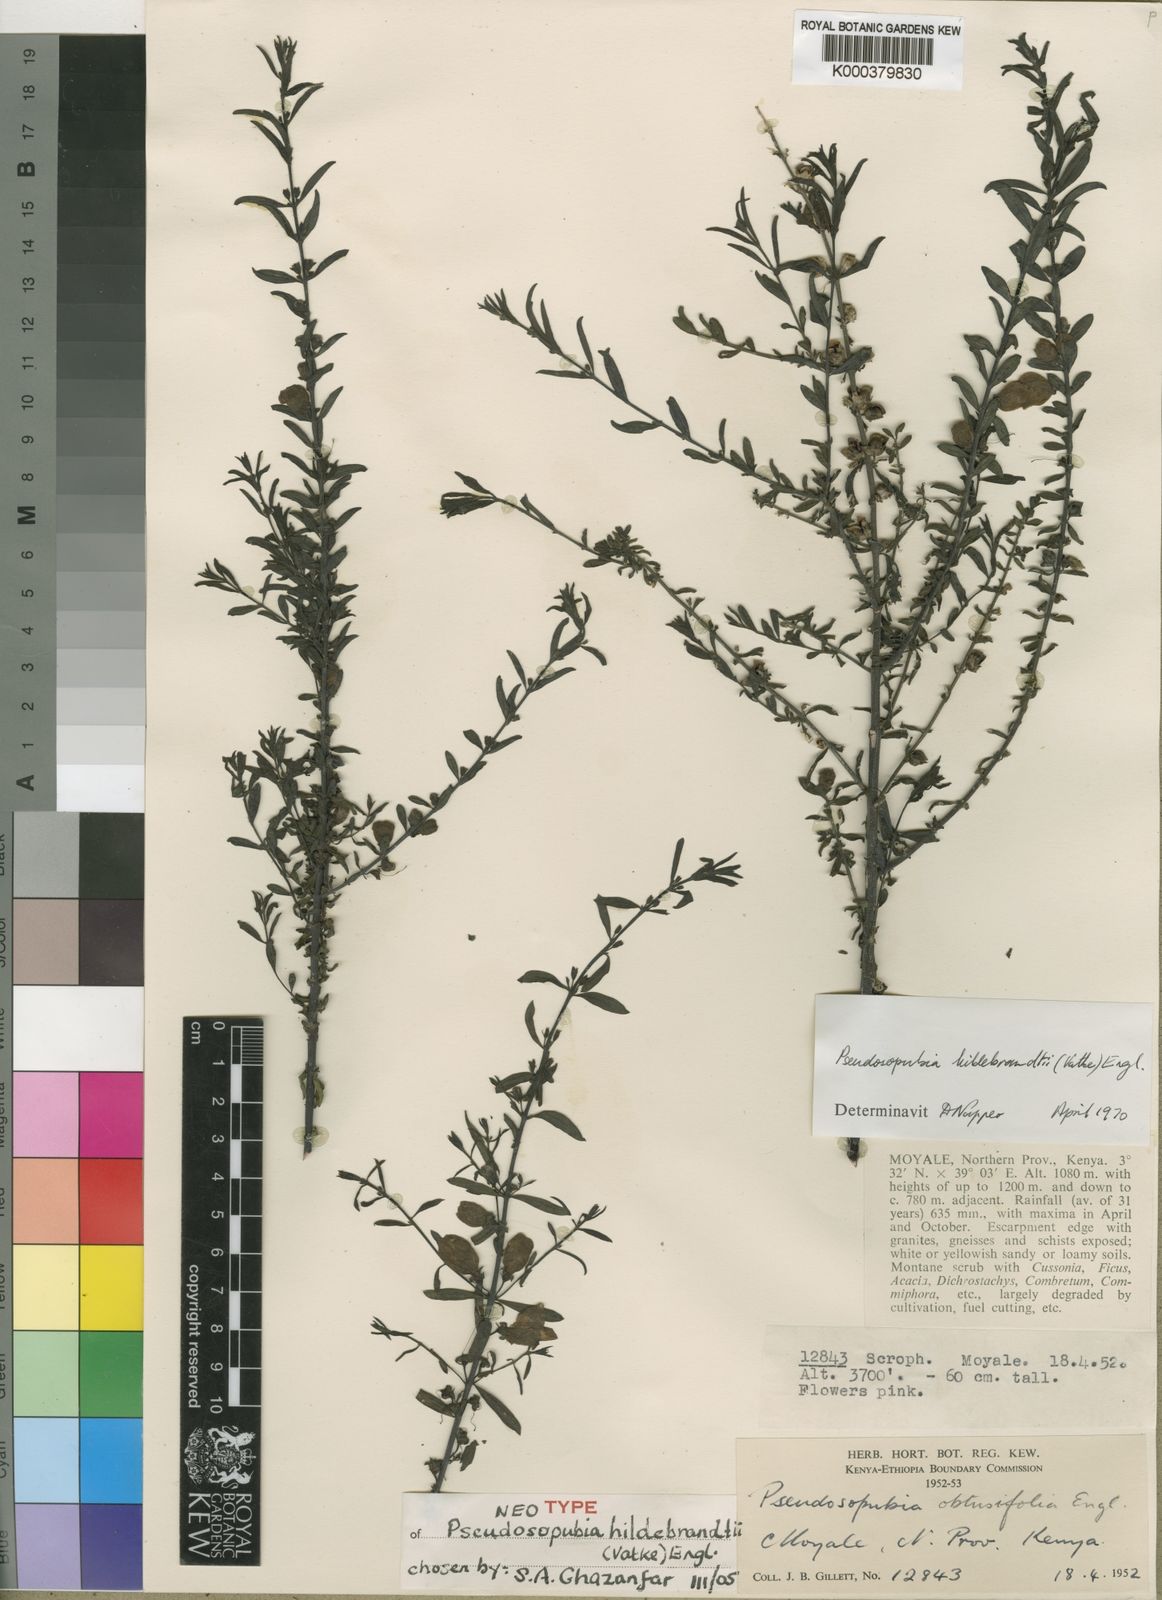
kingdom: Plantae
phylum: Tracheophyta
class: Magnoliopsida
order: Lamiales
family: Orobanchaceae
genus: Pseudosopubia
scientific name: Pseudosopubia hildebrandtii
